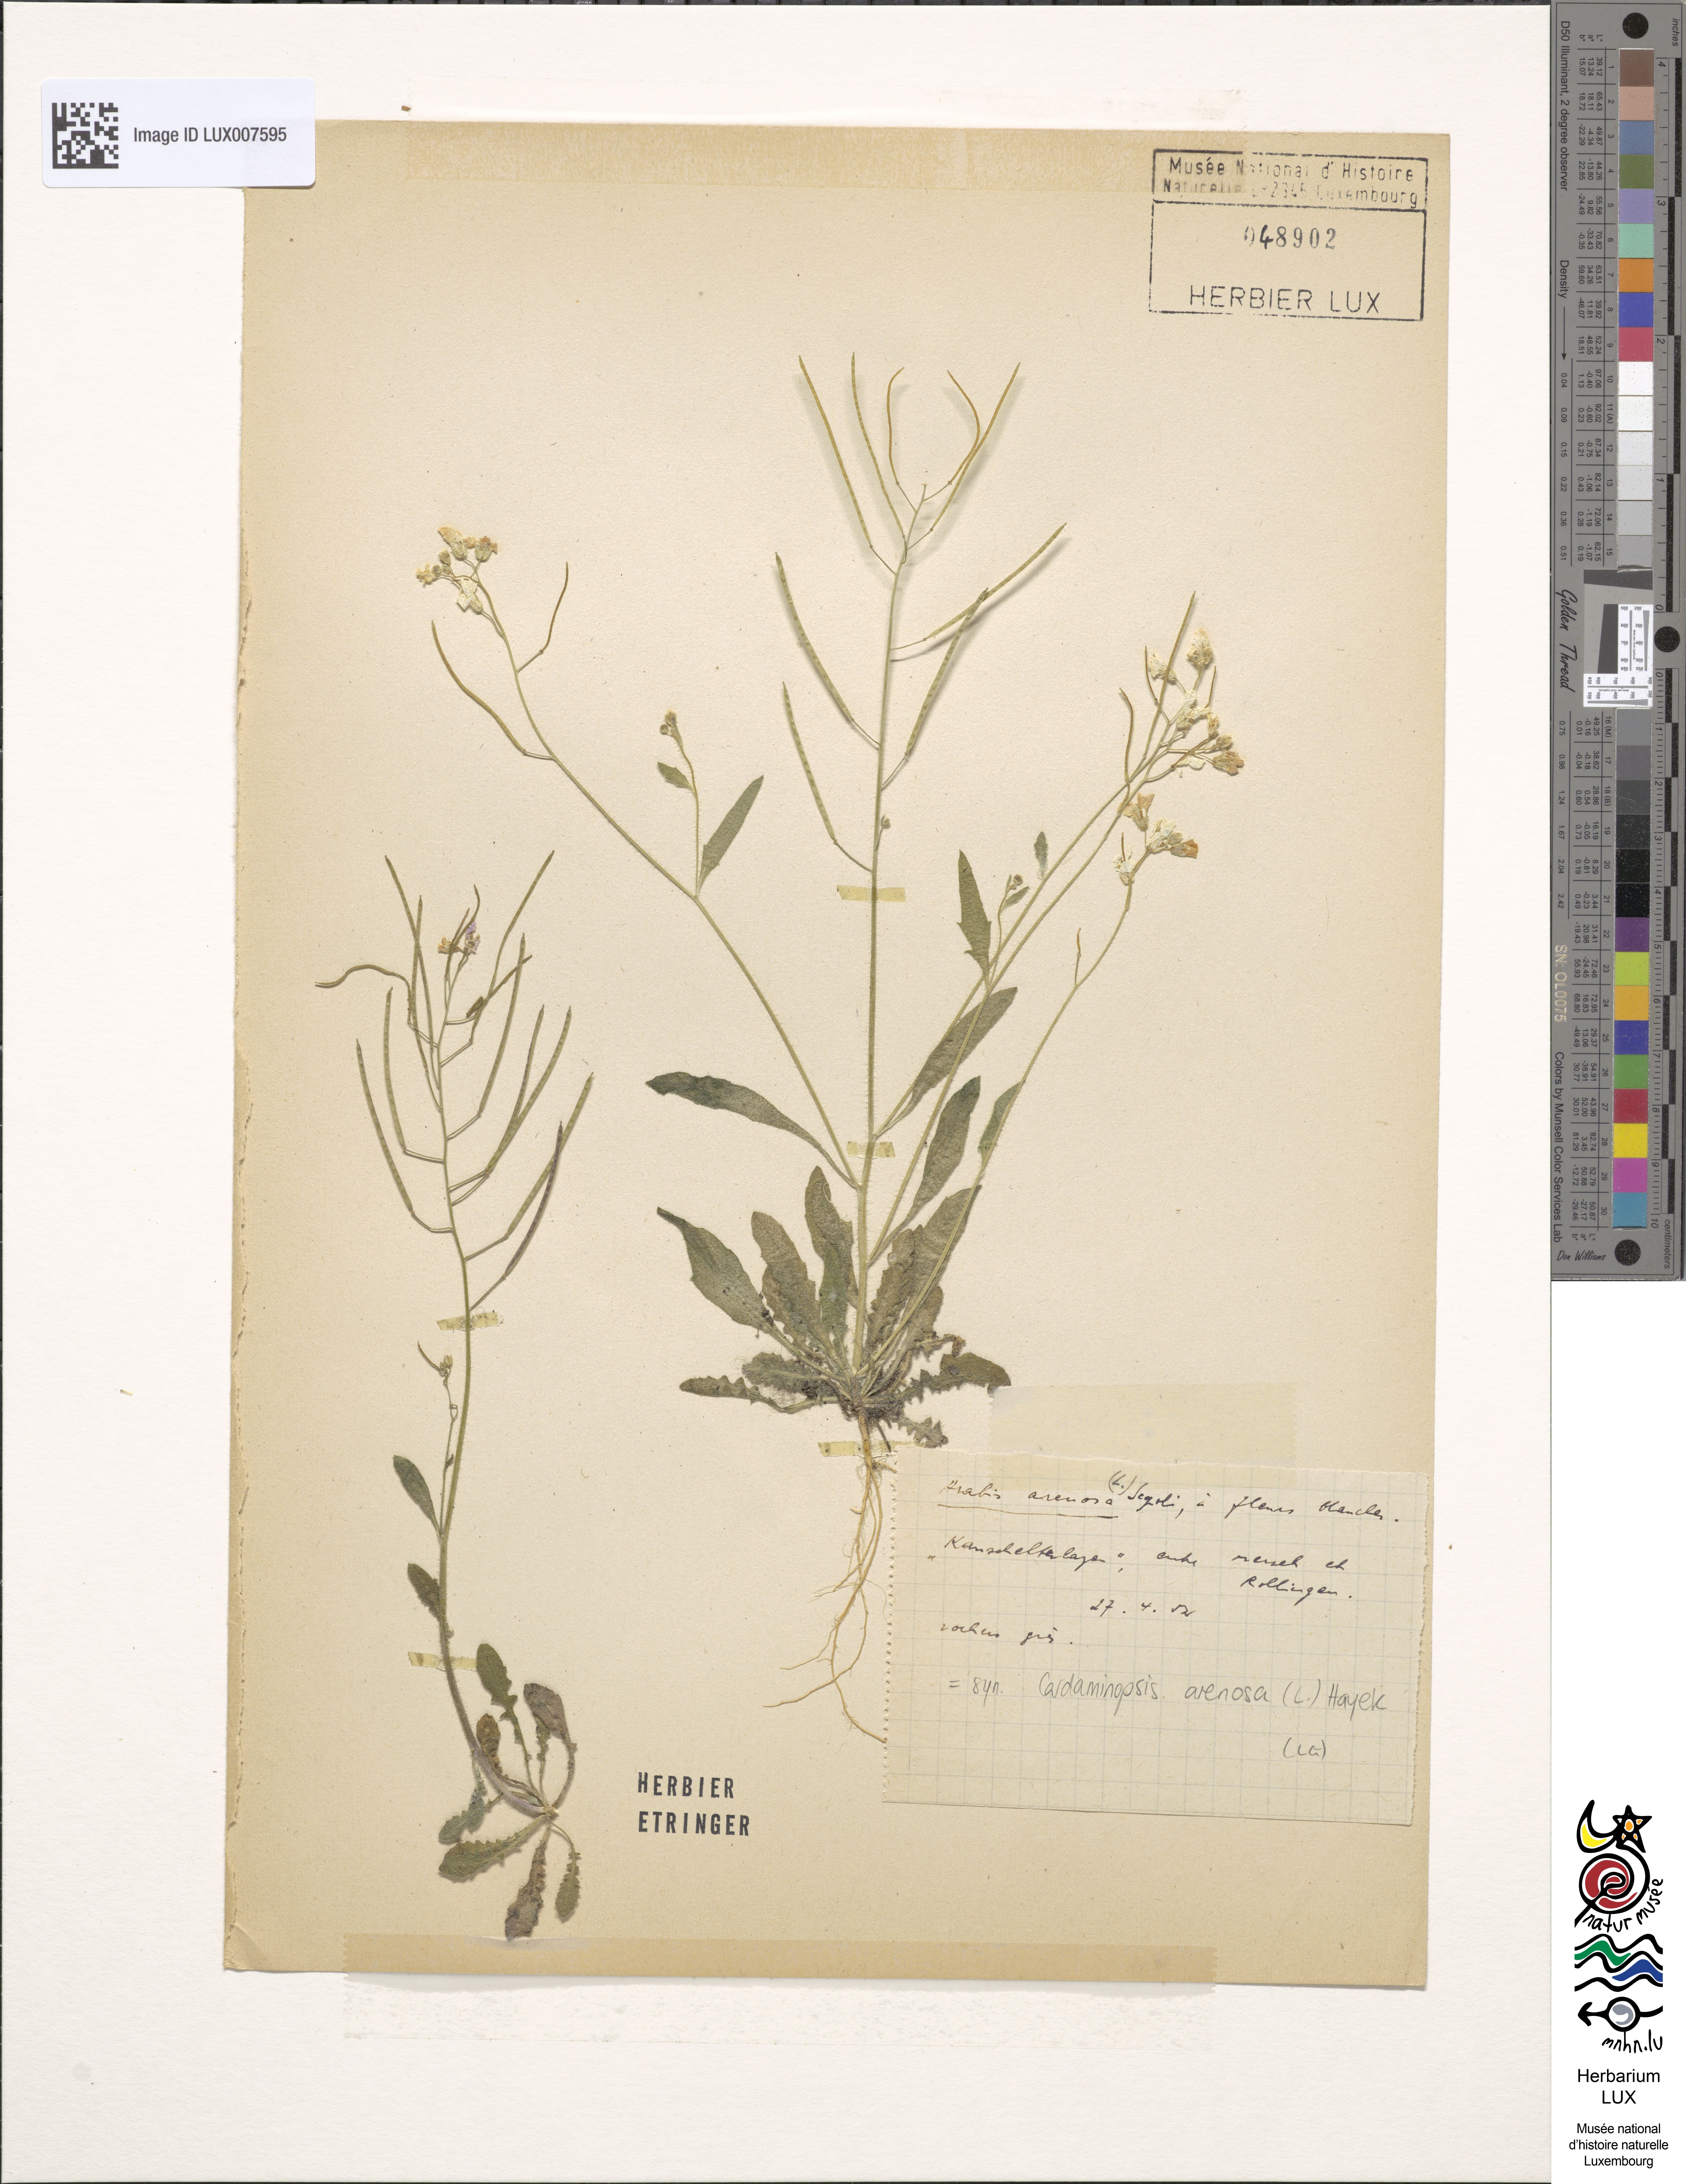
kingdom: Plantae
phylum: Tracheophyta
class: Magnoliopsida
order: Brassicales
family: Brassicaceae
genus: Arabidopsis
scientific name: Arabidopsis arenosa
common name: Sand rock-cress
